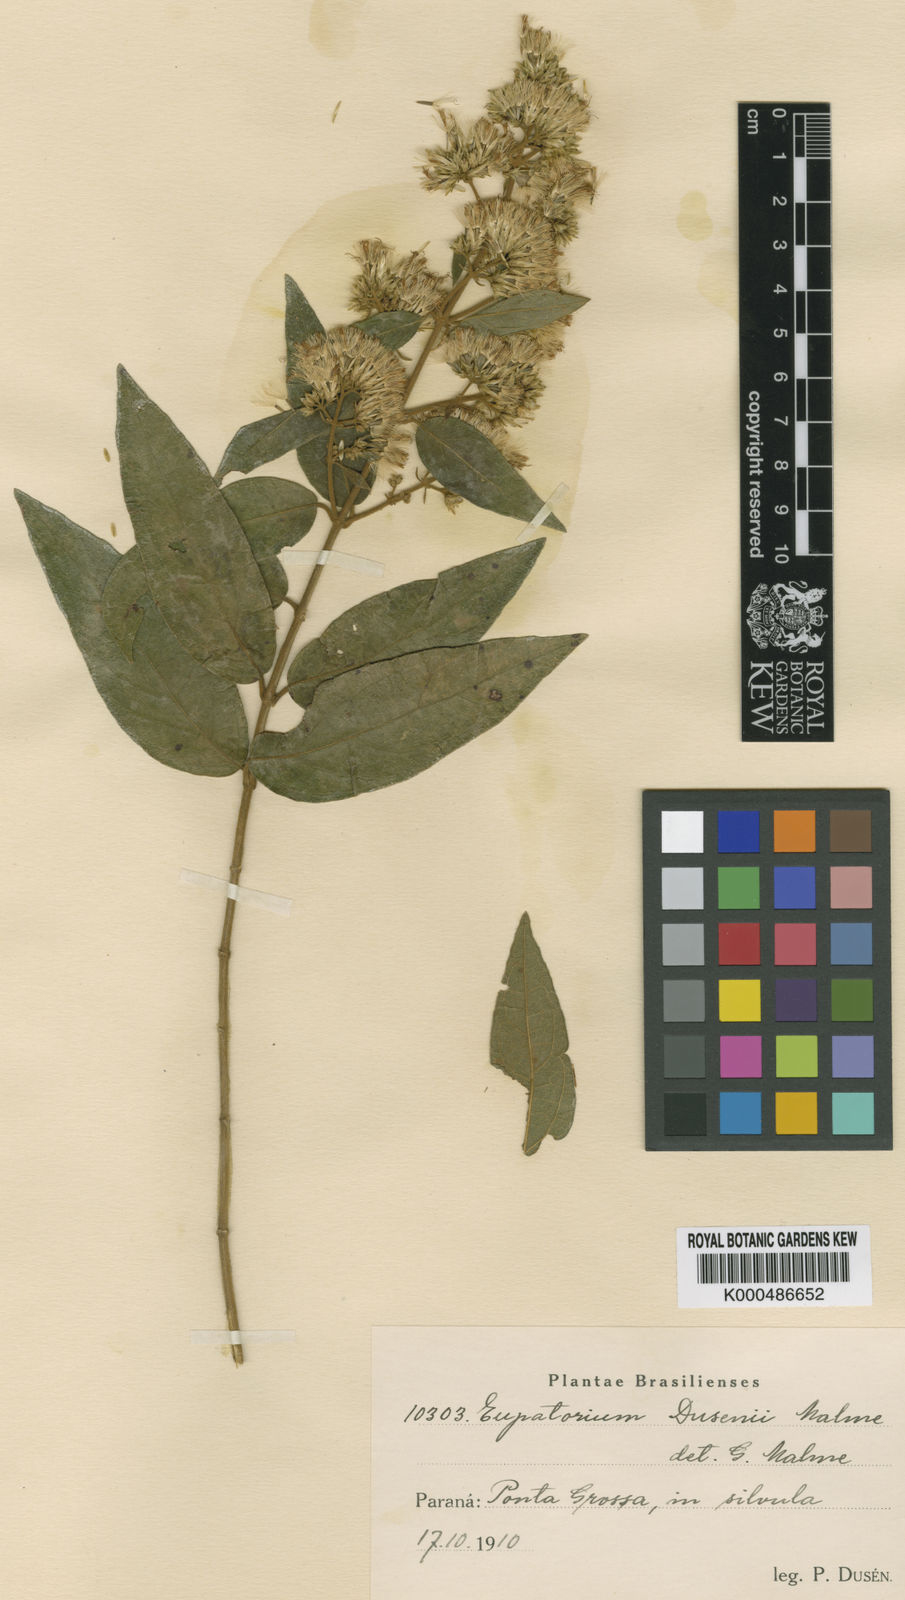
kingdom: Plantae
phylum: Tracheophyta
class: Magnoliopsida
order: Asterales
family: Asteraceae
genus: Steyermarkina
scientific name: Steyermarkina dusenii
